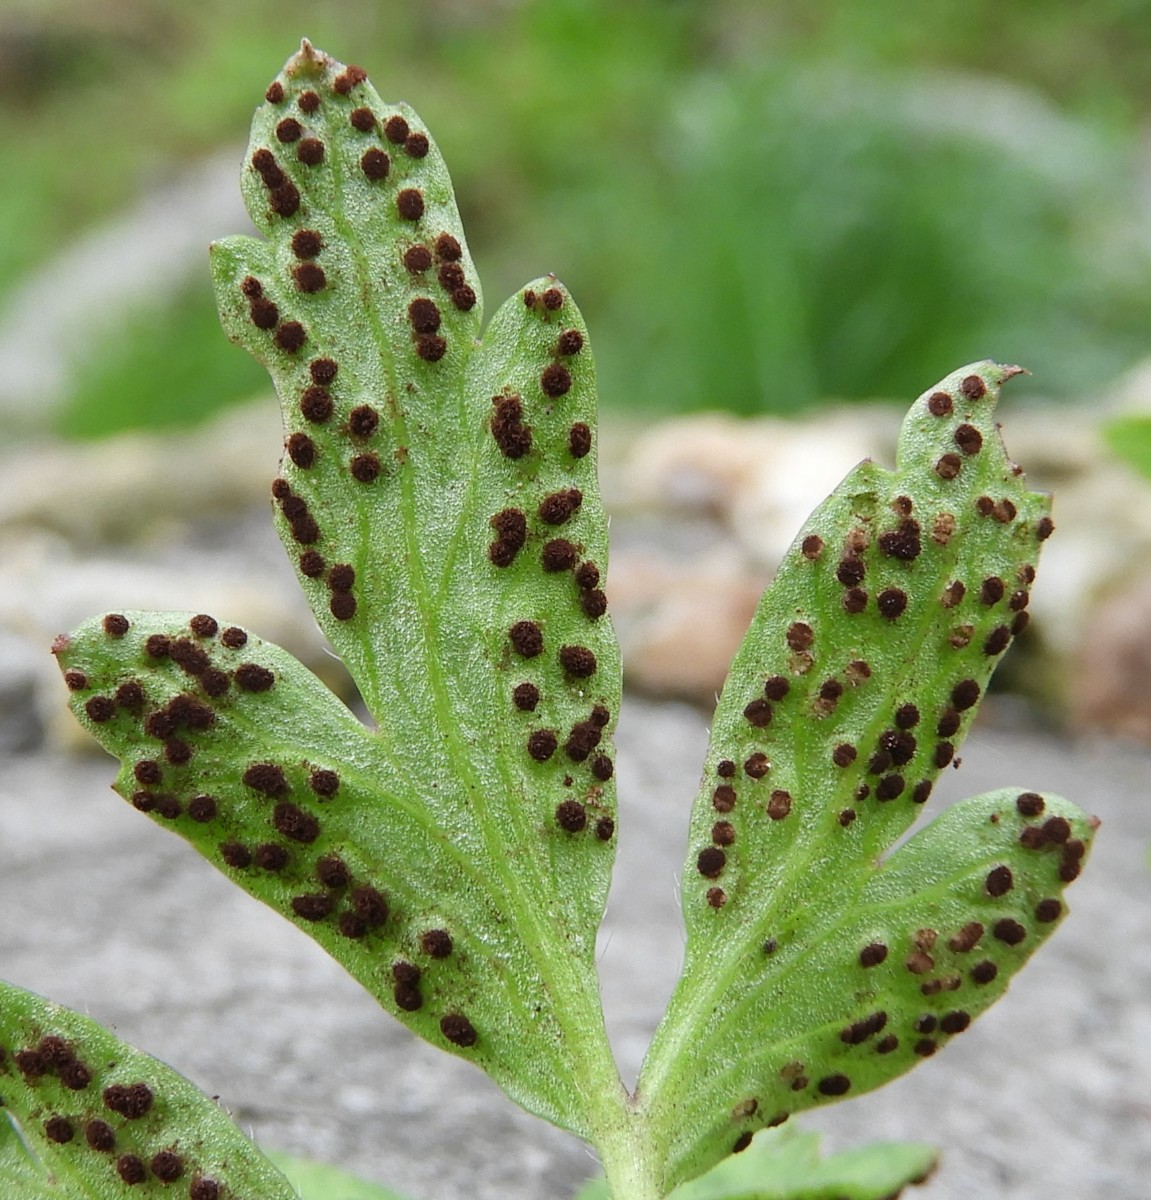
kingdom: Fungi
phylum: Basidiomycota
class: Pucciniomycetes
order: Pucciniales
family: Tranzscheliaceae
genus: Tranzschelia
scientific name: Tranzschelia anemones
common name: anemone-knæksporerust
